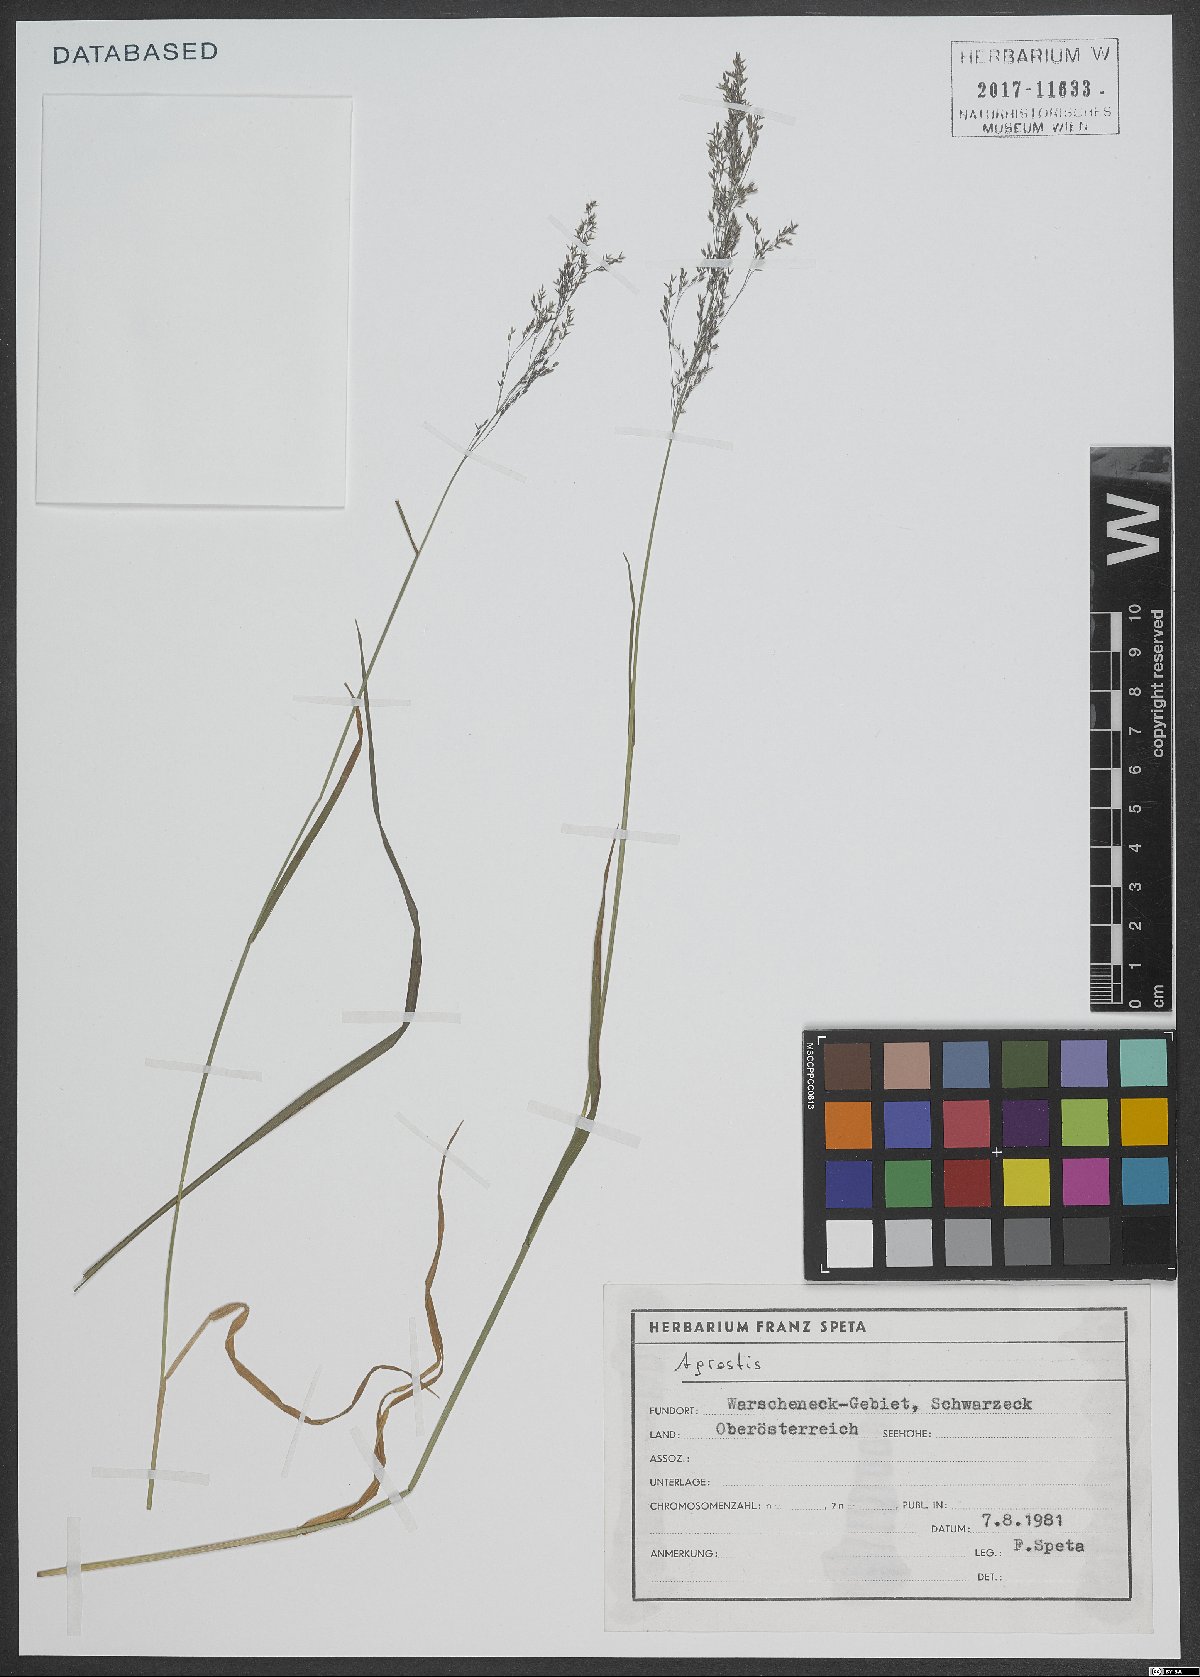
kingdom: Plantae
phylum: Tracheophyta
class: Liliopsida
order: Poales
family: Poaceae
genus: Agrostis
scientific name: Agrostis
